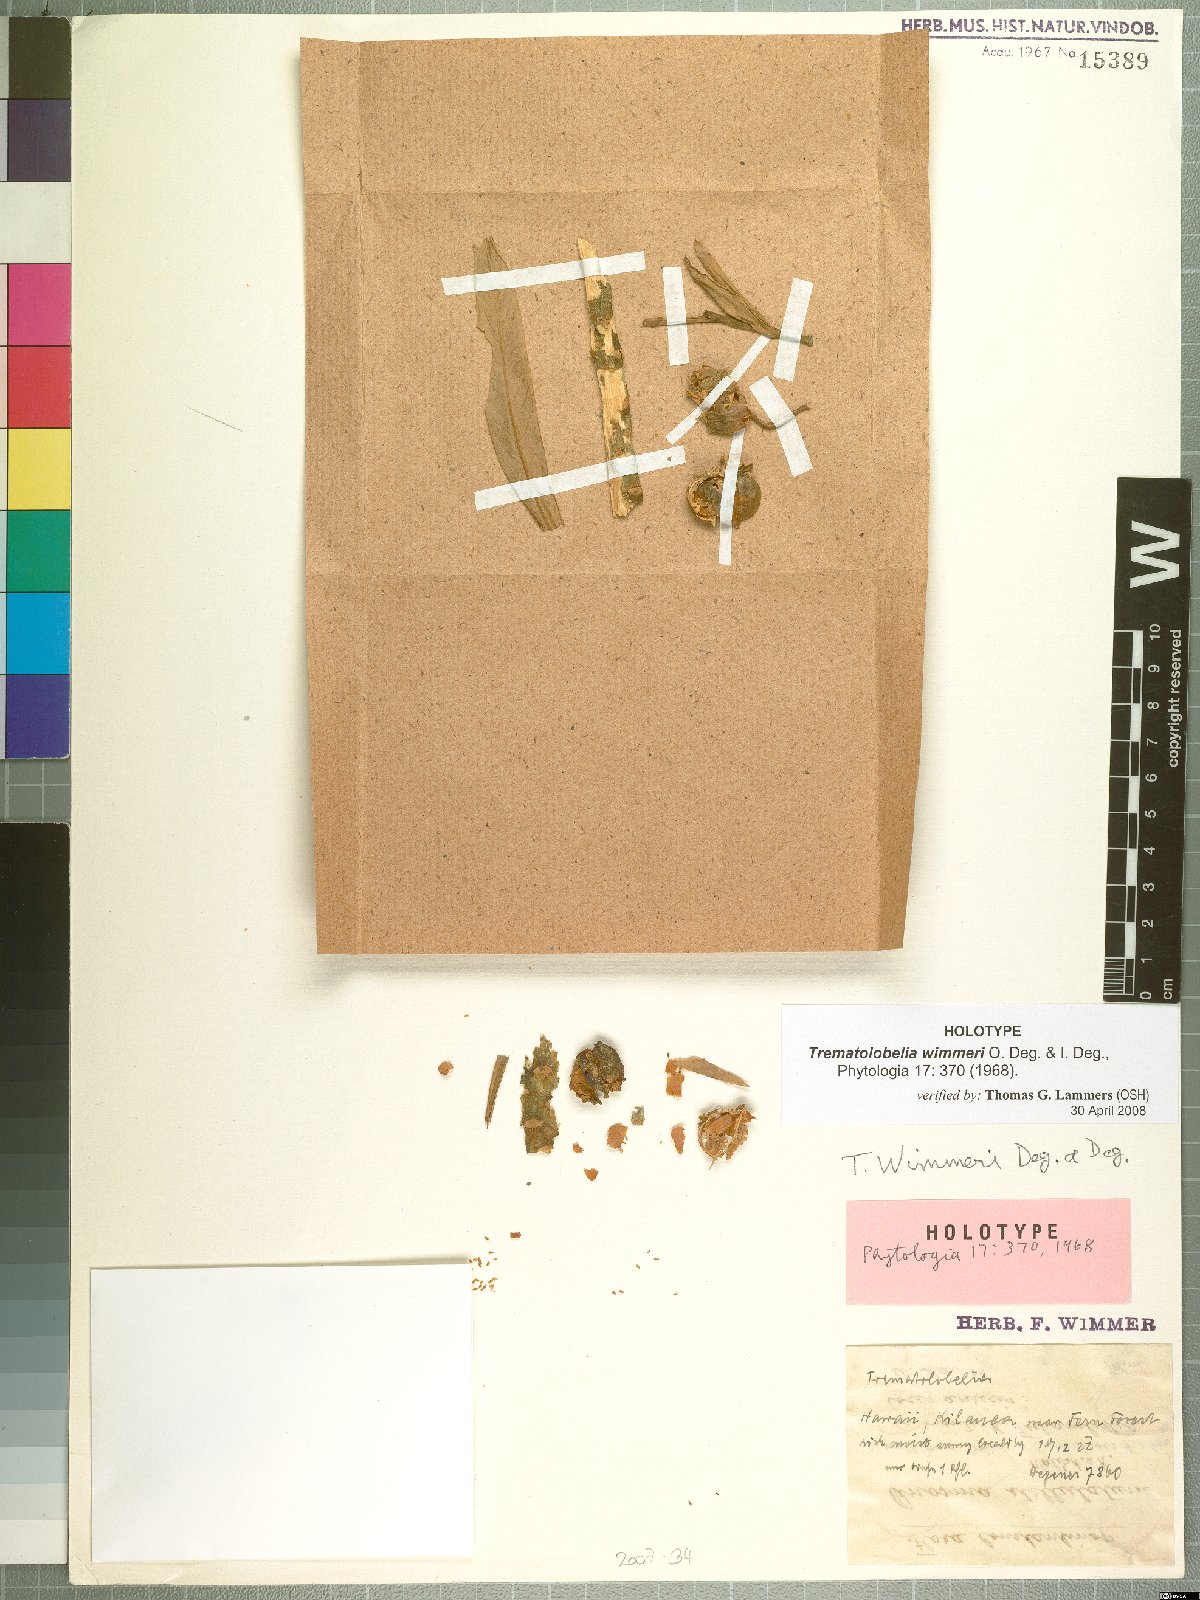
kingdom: Plantae
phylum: Tracheophyta
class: Magnoliopsida
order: Asterales
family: Campanulaceae
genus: Trematolobelia
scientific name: Trematolobelia wimmeri
